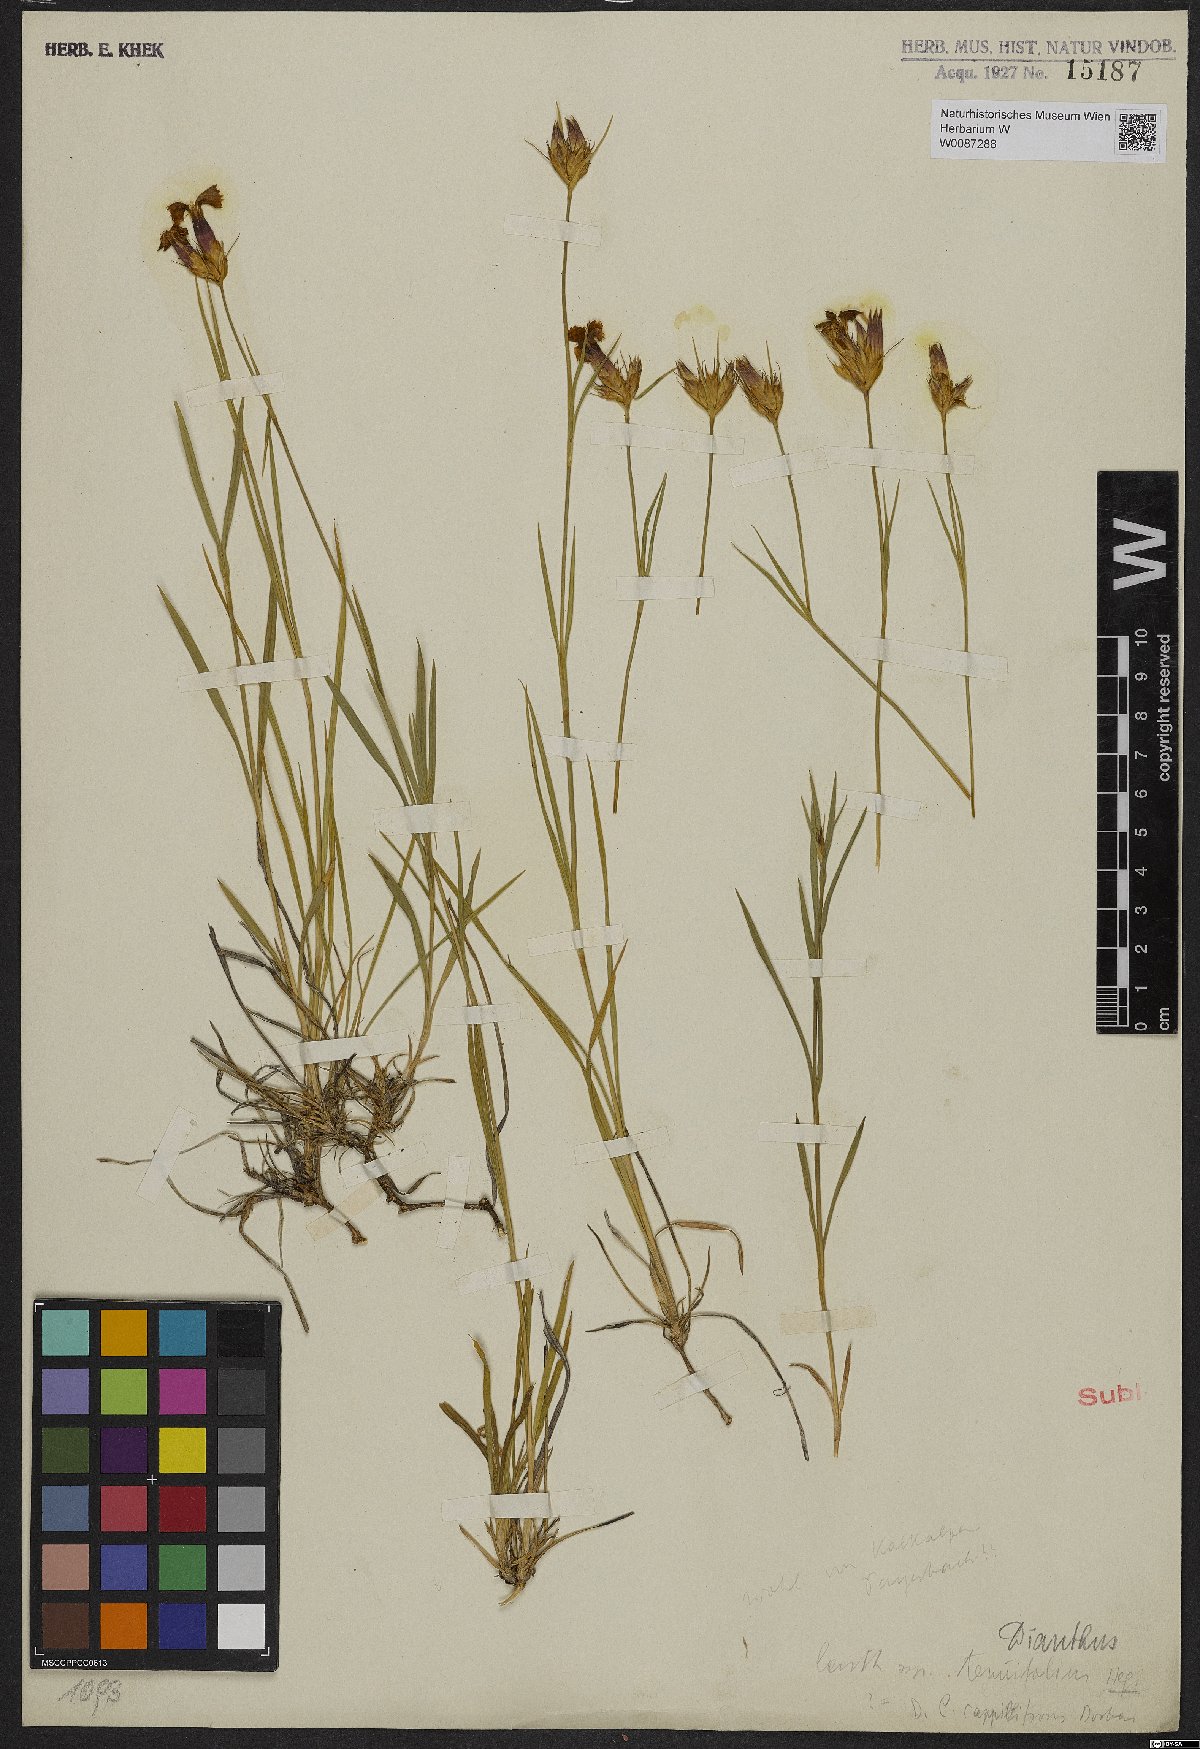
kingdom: Plantae
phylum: Tracheophyta
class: Magnoliopsida
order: Caryophyllales
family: Caryophyllaceae
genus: Dianthus
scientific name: Dianthus carthusianorum
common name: Carthusian pink
